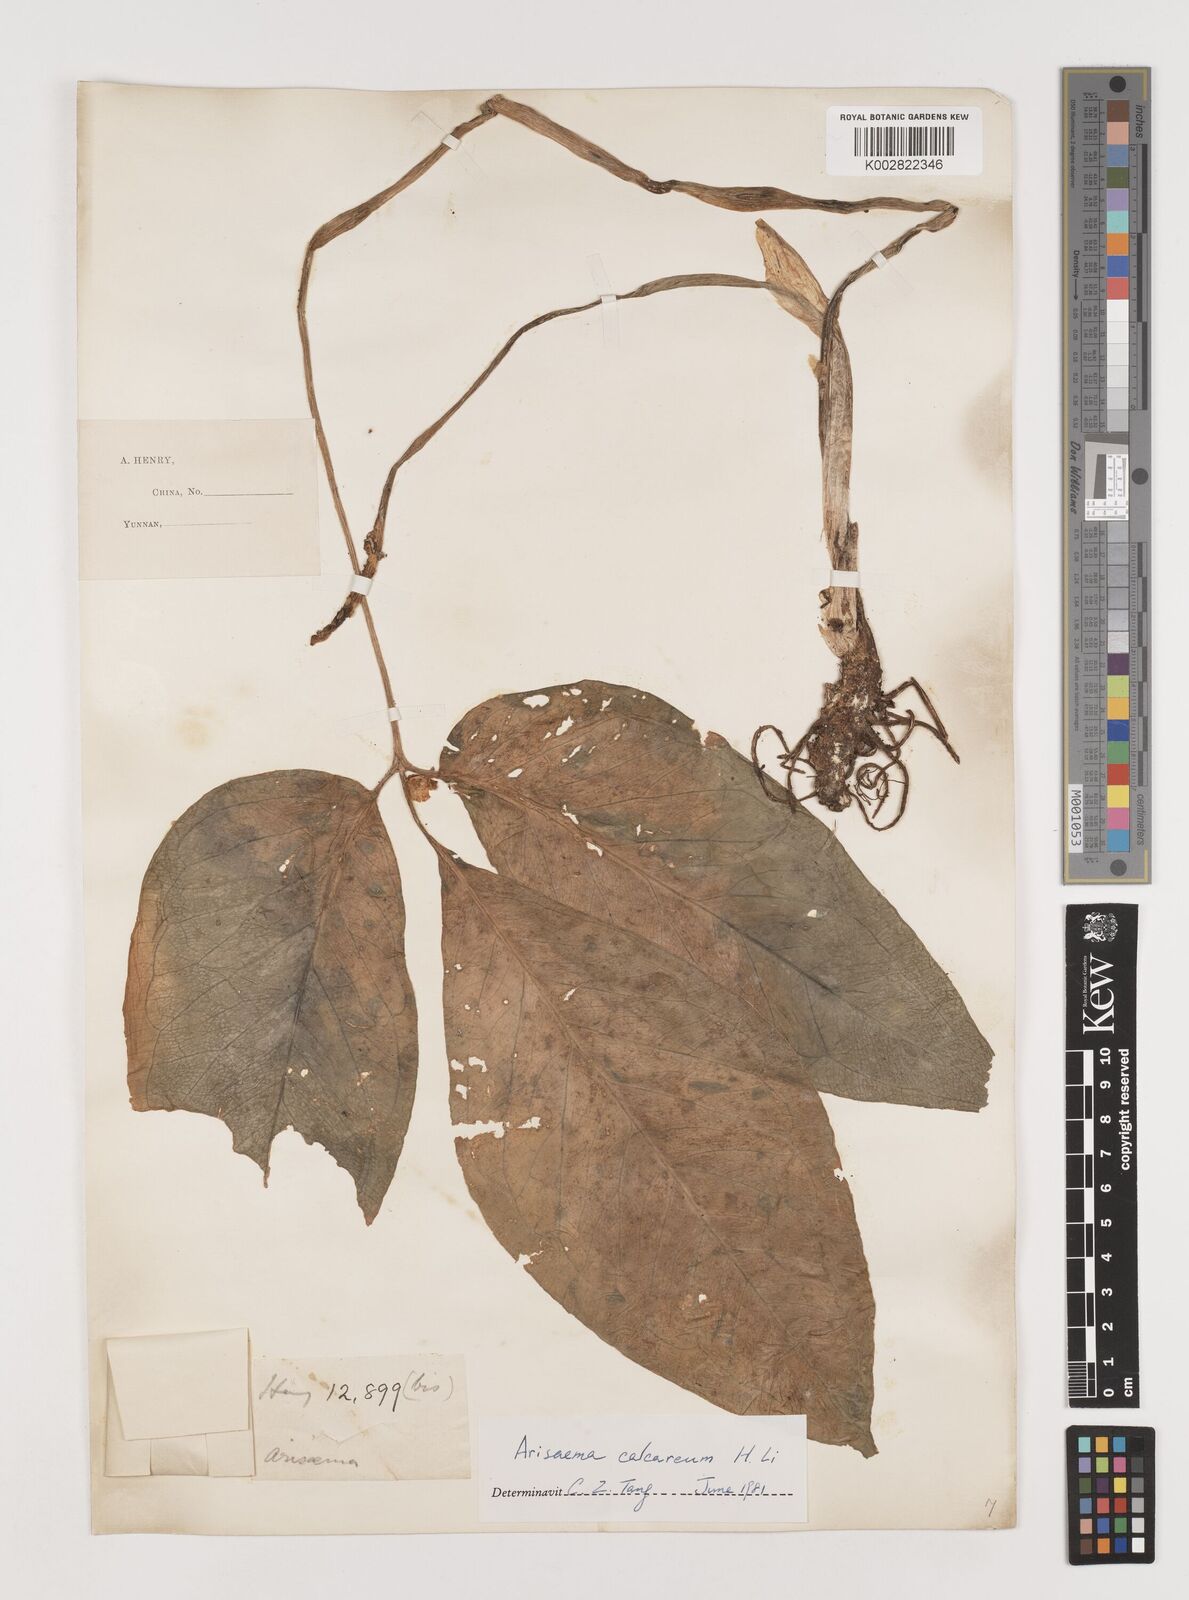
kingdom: Plantae
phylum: Tracheophyta
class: Liliopsida
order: Alismatales
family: Araceae
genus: Arisaema
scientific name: Arisaema calcareum
